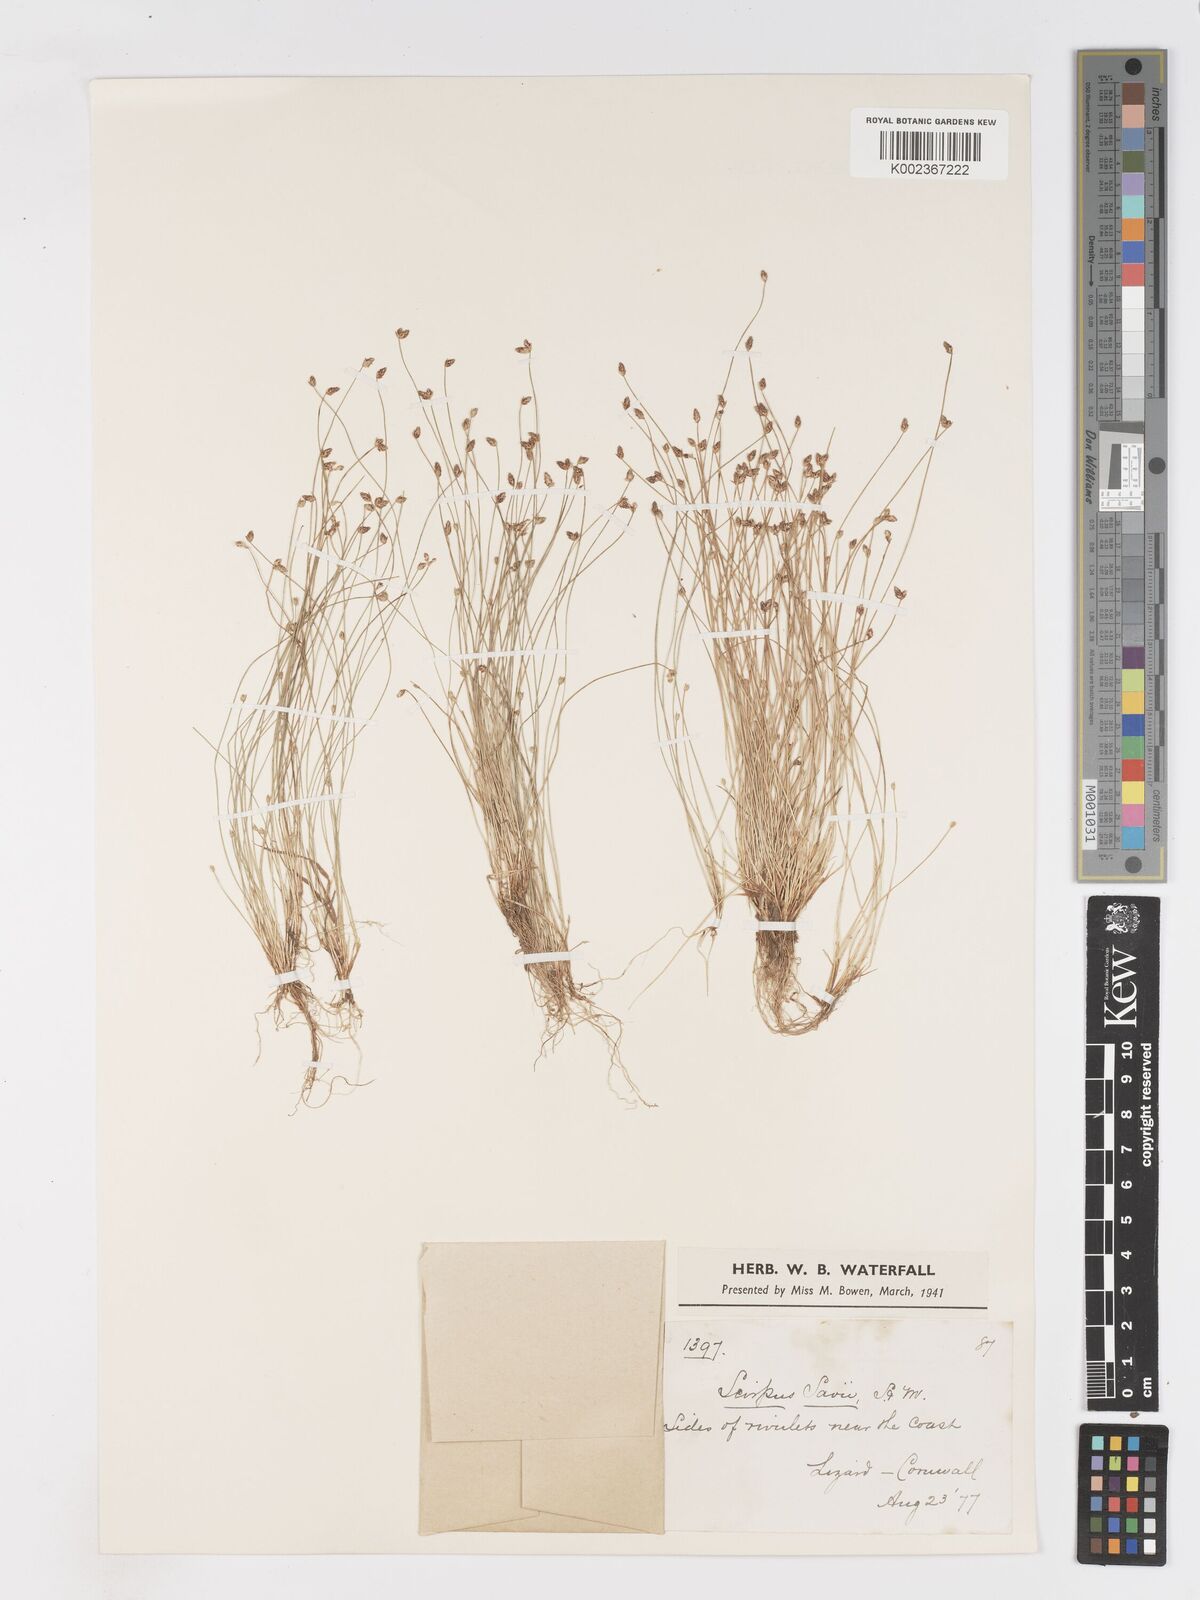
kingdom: Plantae
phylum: Tracheophyta
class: Liliopsida
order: Poales
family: Cyperaceae
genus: Isolepis
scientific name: Isolepis cernua
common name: Slender club-rush
